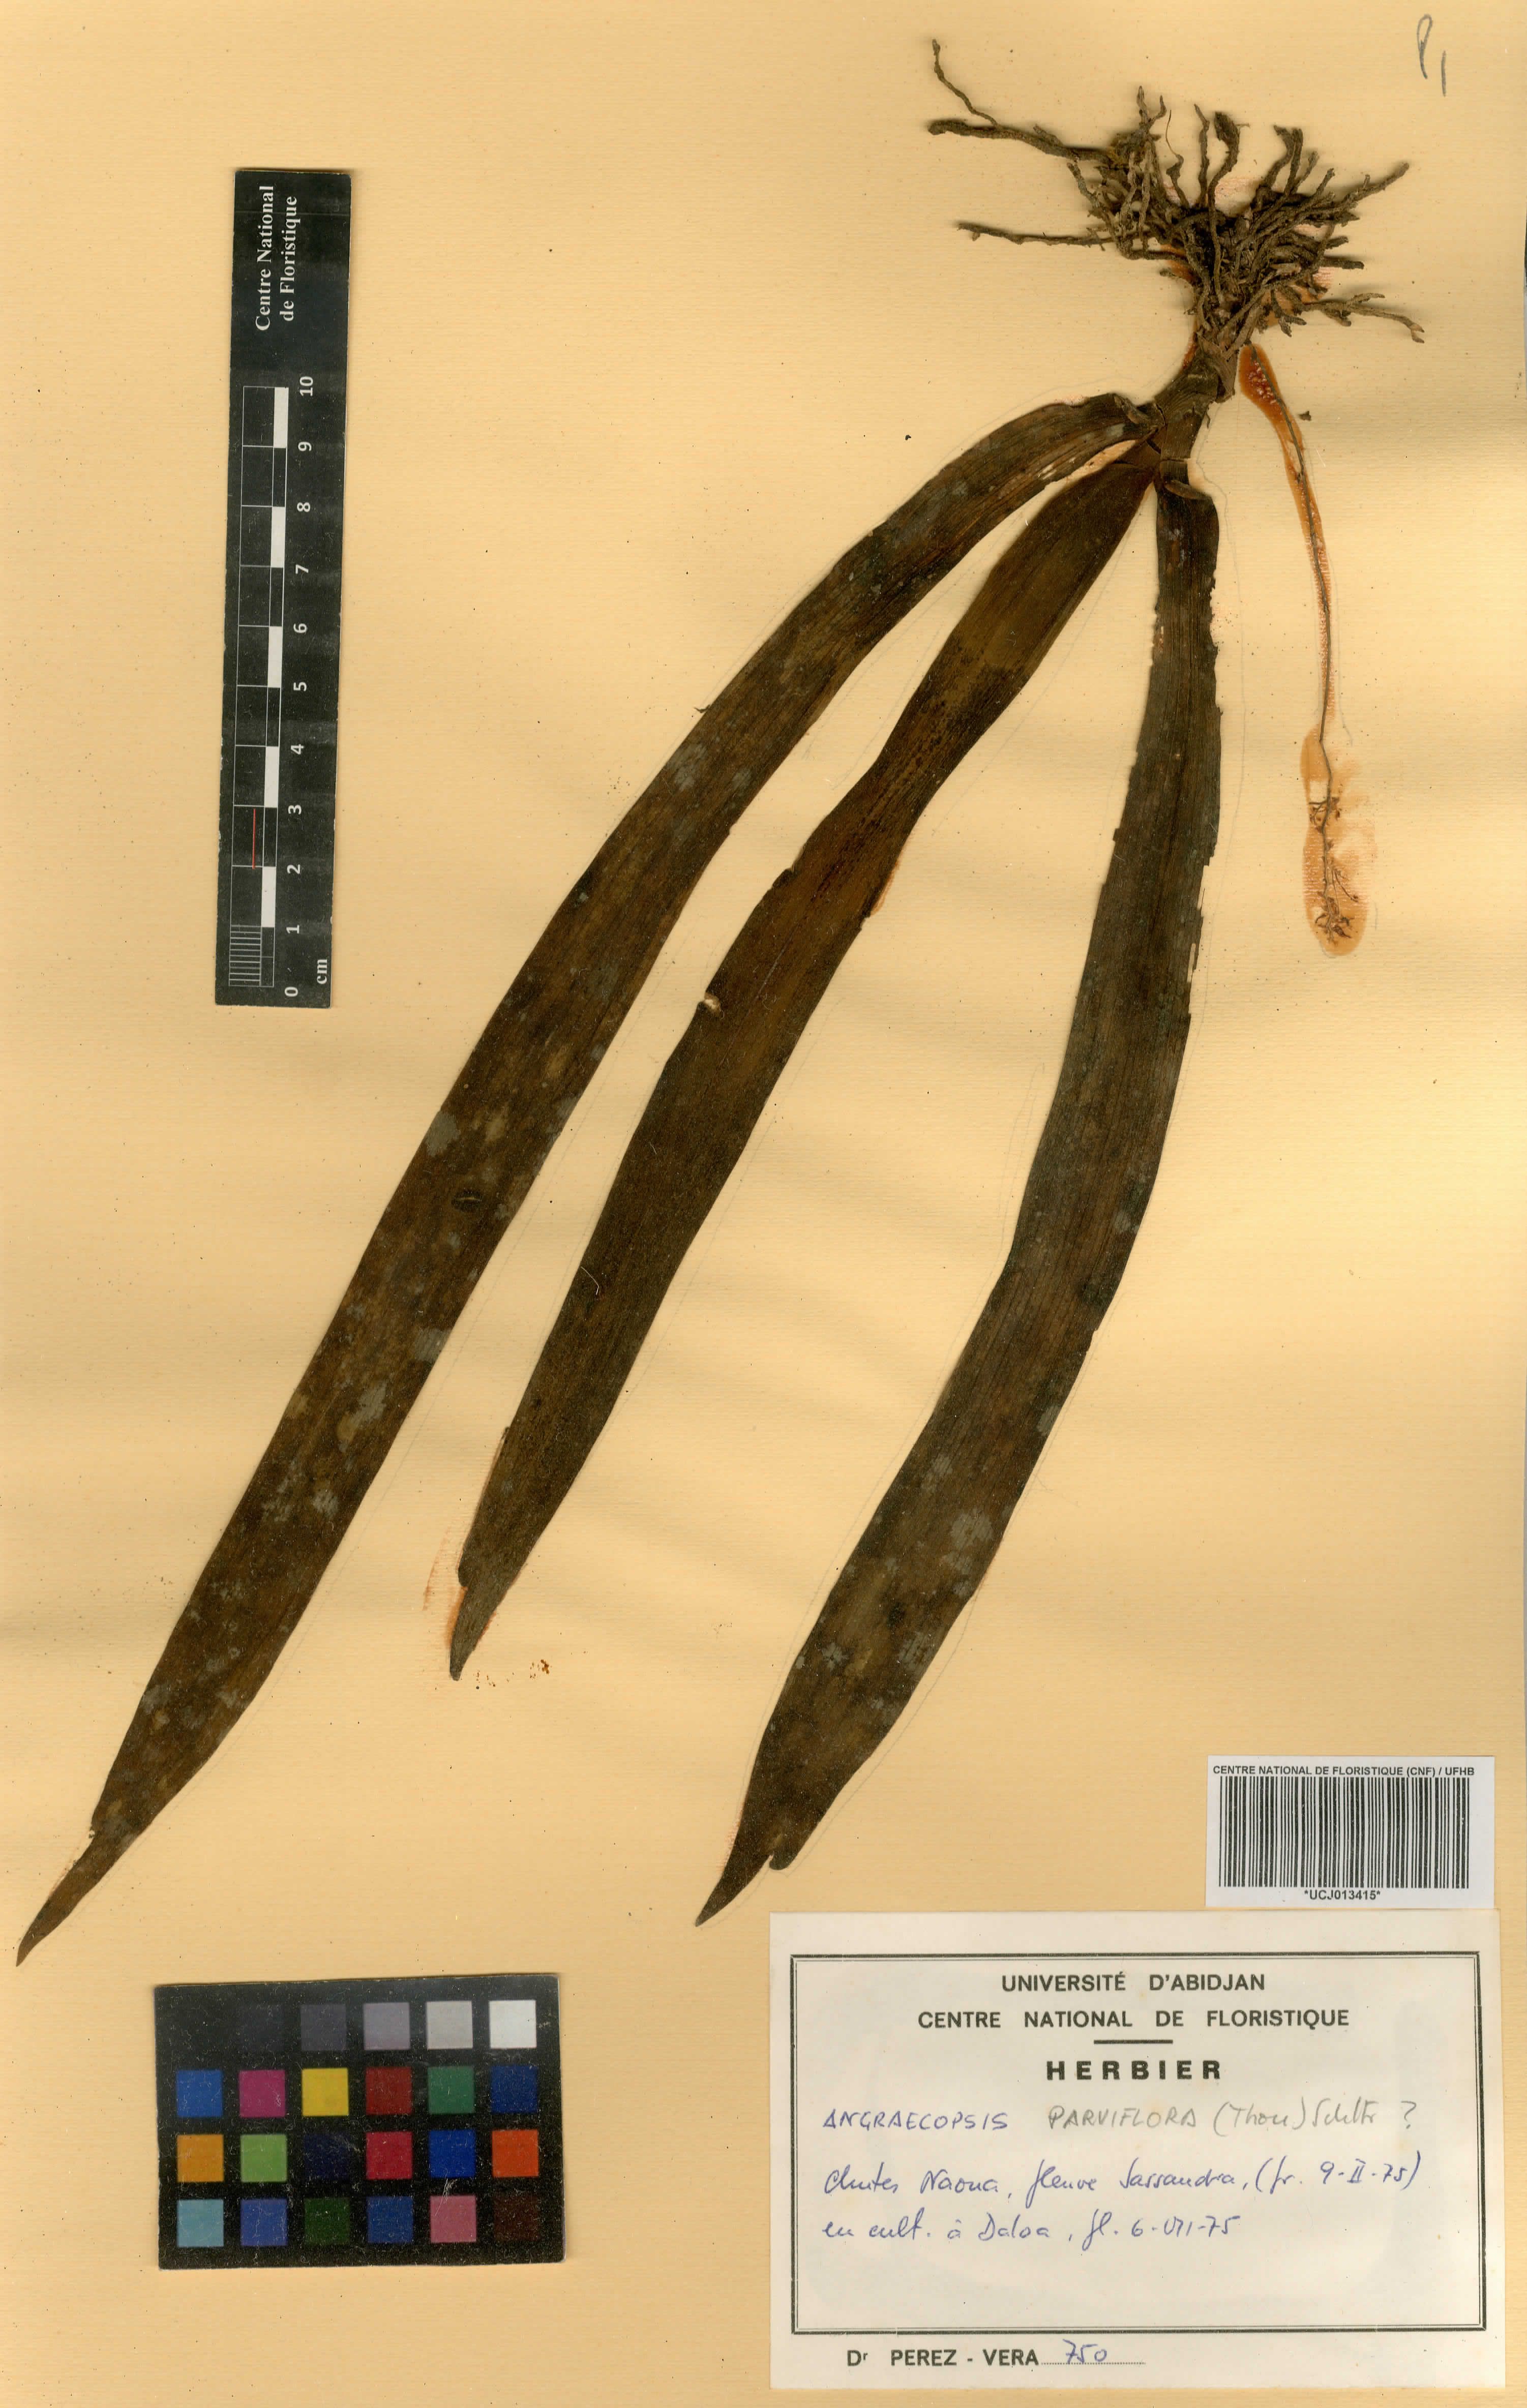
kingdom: Plantae
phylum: Tracheophyta
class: Liliopsida
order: Asparagales
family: Orchidaceae
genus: Angraecopsis
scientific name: Angraecopsis parviflora
